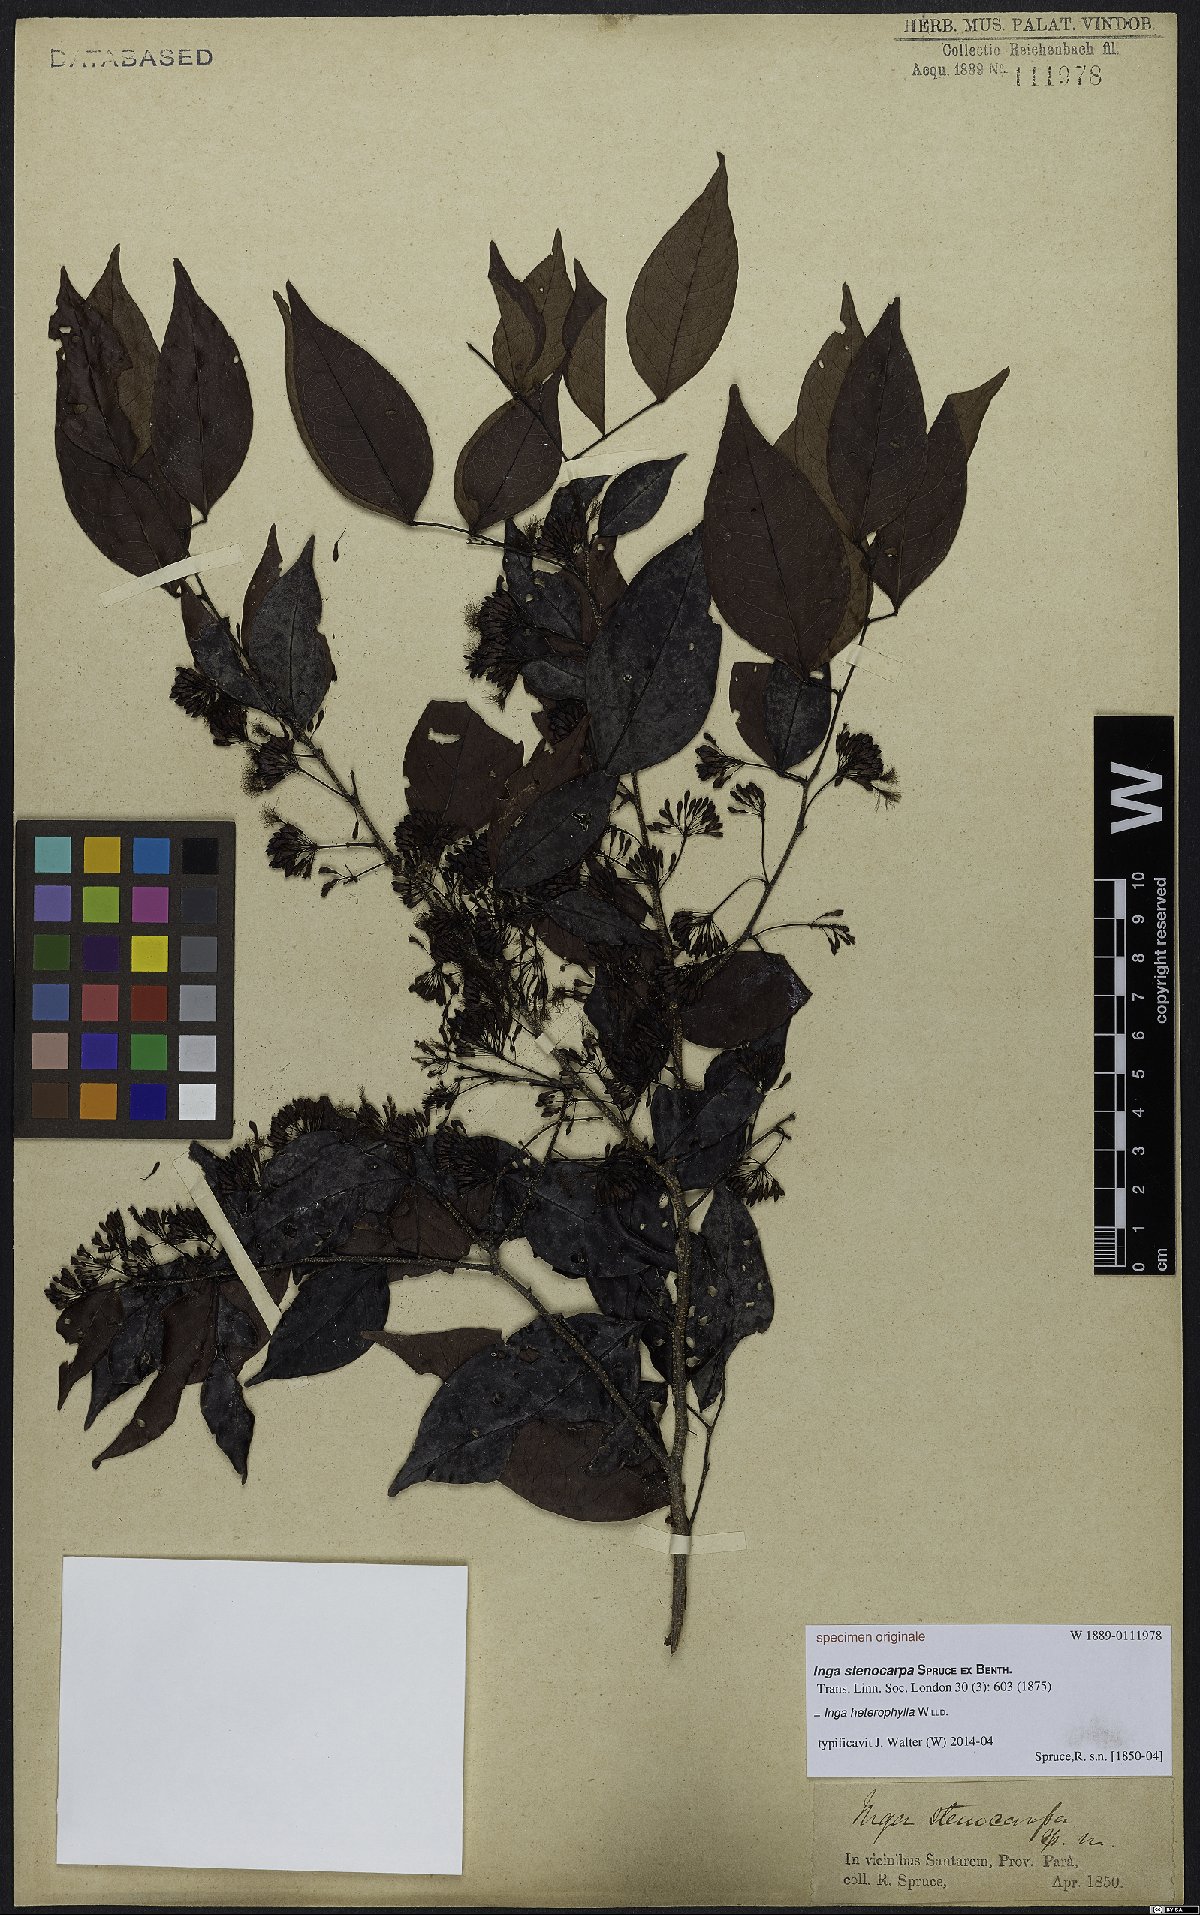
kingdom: Plantae
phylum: Tracheophyta
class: Magnoliopsida
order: Fabales
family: Fabaceae
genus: Inga
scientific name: Inga heterophylla
